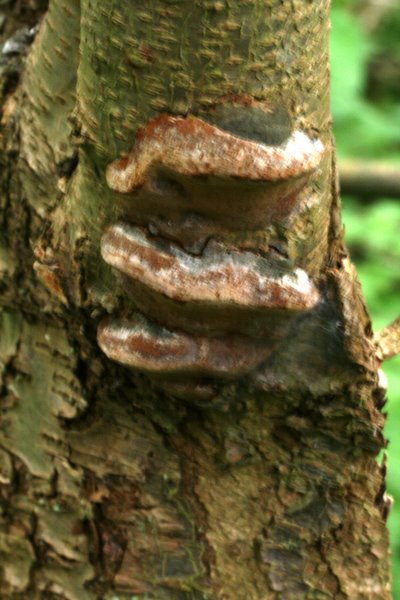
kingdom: Fungi
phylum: Basidiomycota
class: Agaricomycetes
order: Hymenochaetales
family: Hymenochaetaceae
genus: Phellinus
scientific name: Phellinus pomaceus
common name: blomme-ildporesvamp
